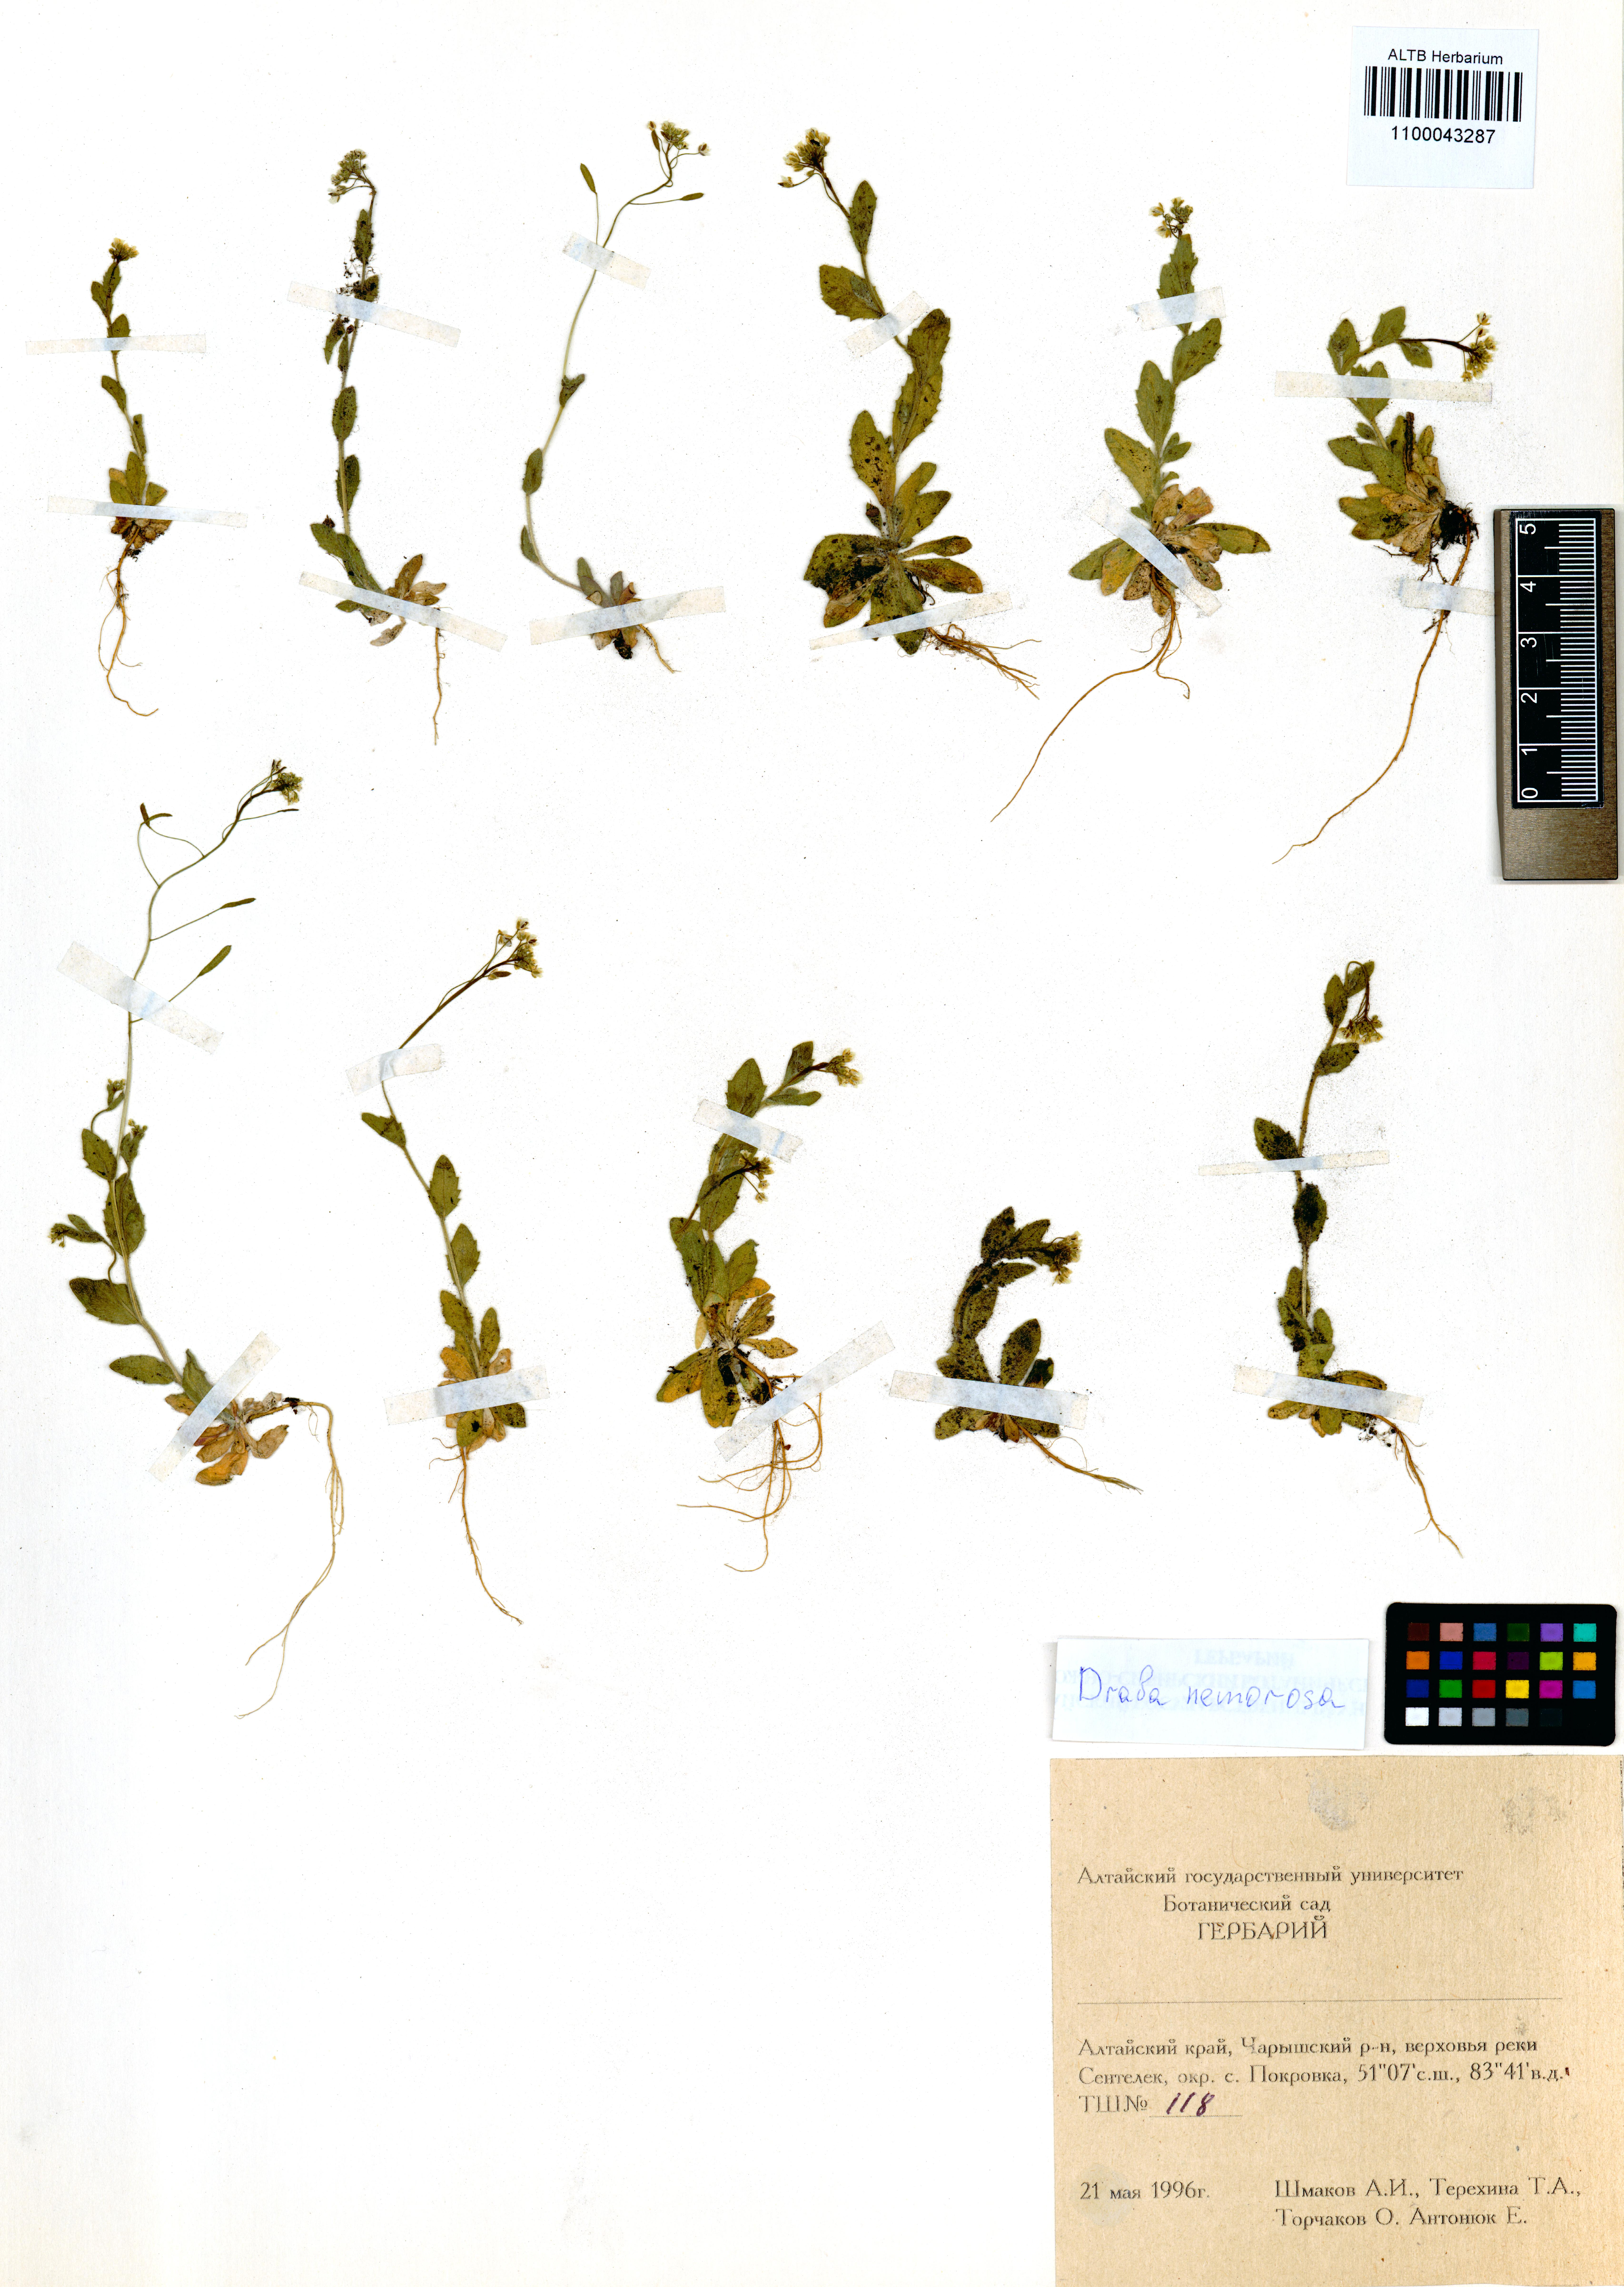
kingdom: Plantae
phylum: Tracheophyta
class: Magnoliopsida
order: Brassicales
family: Brassicaceae
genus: Draba
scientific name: Draba nemorosa
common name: Wood whitlow-grass
